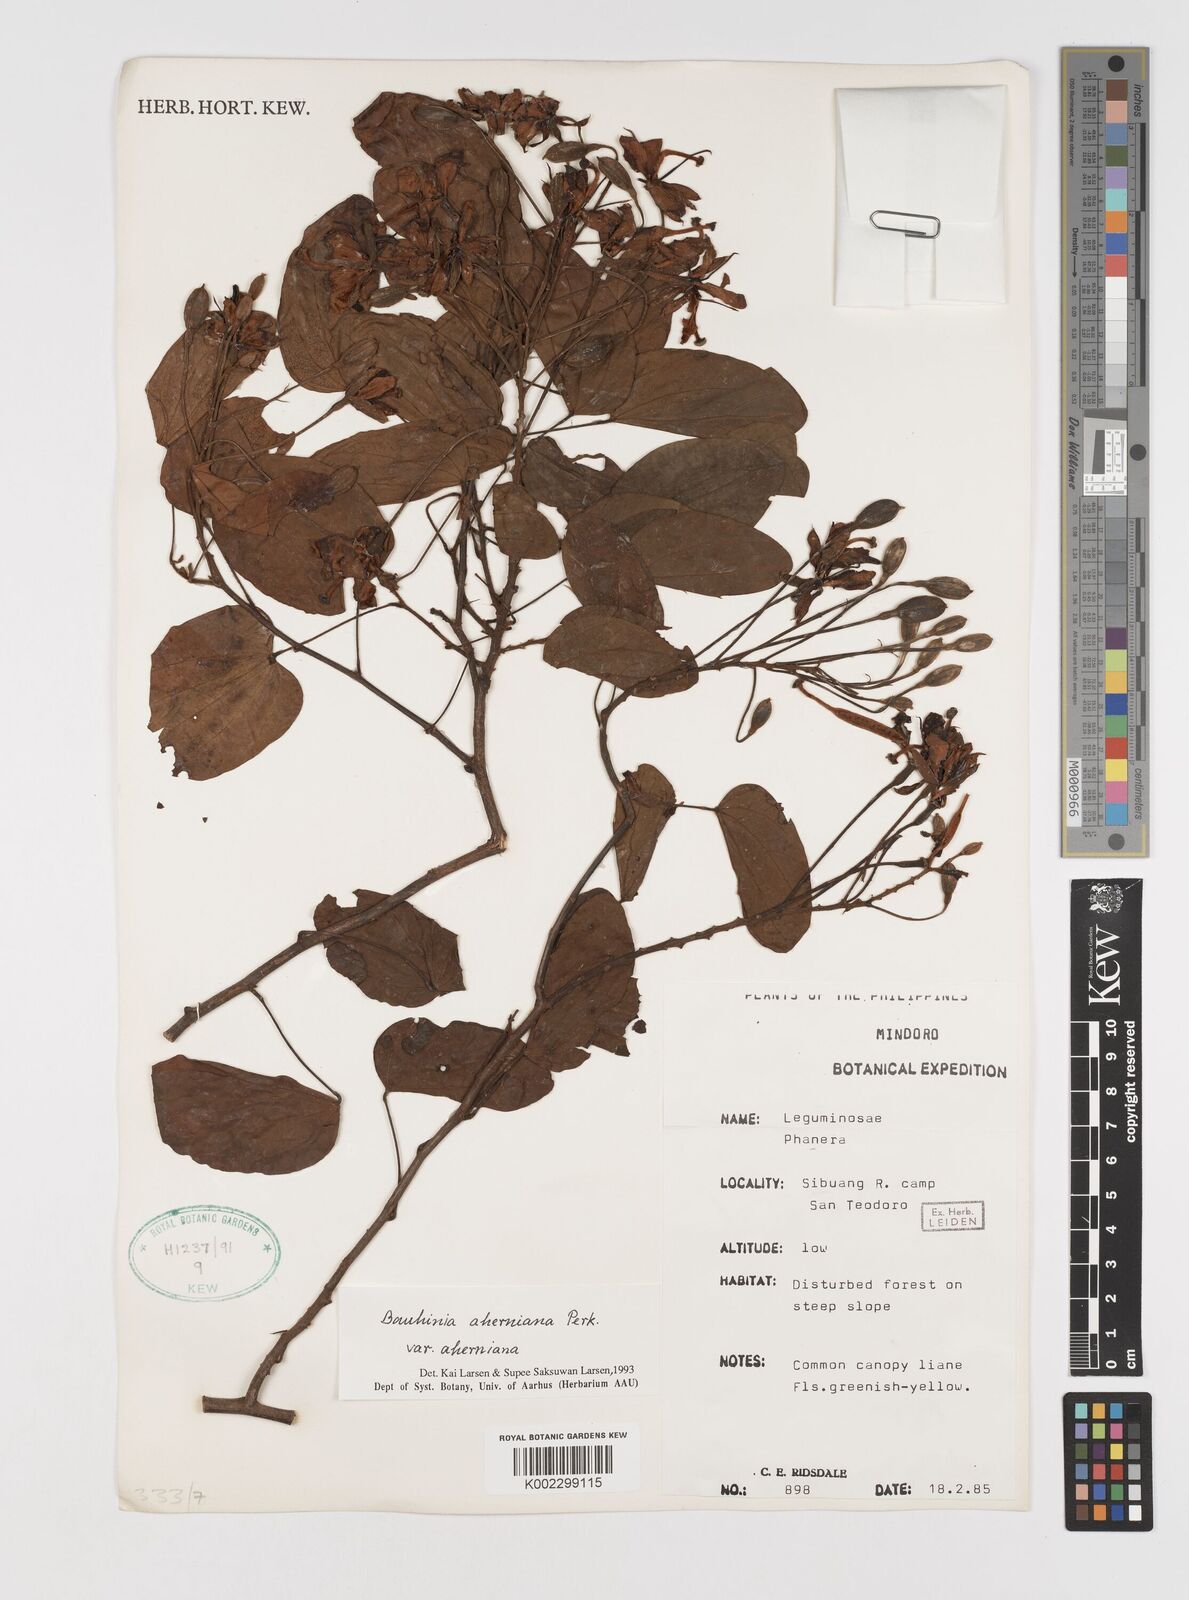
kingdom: Plantae
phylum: Tracheophyta
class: Magnoliopsida
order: Fabales
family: Fabaceae
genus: Phanera
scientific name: Phanera aherniana
